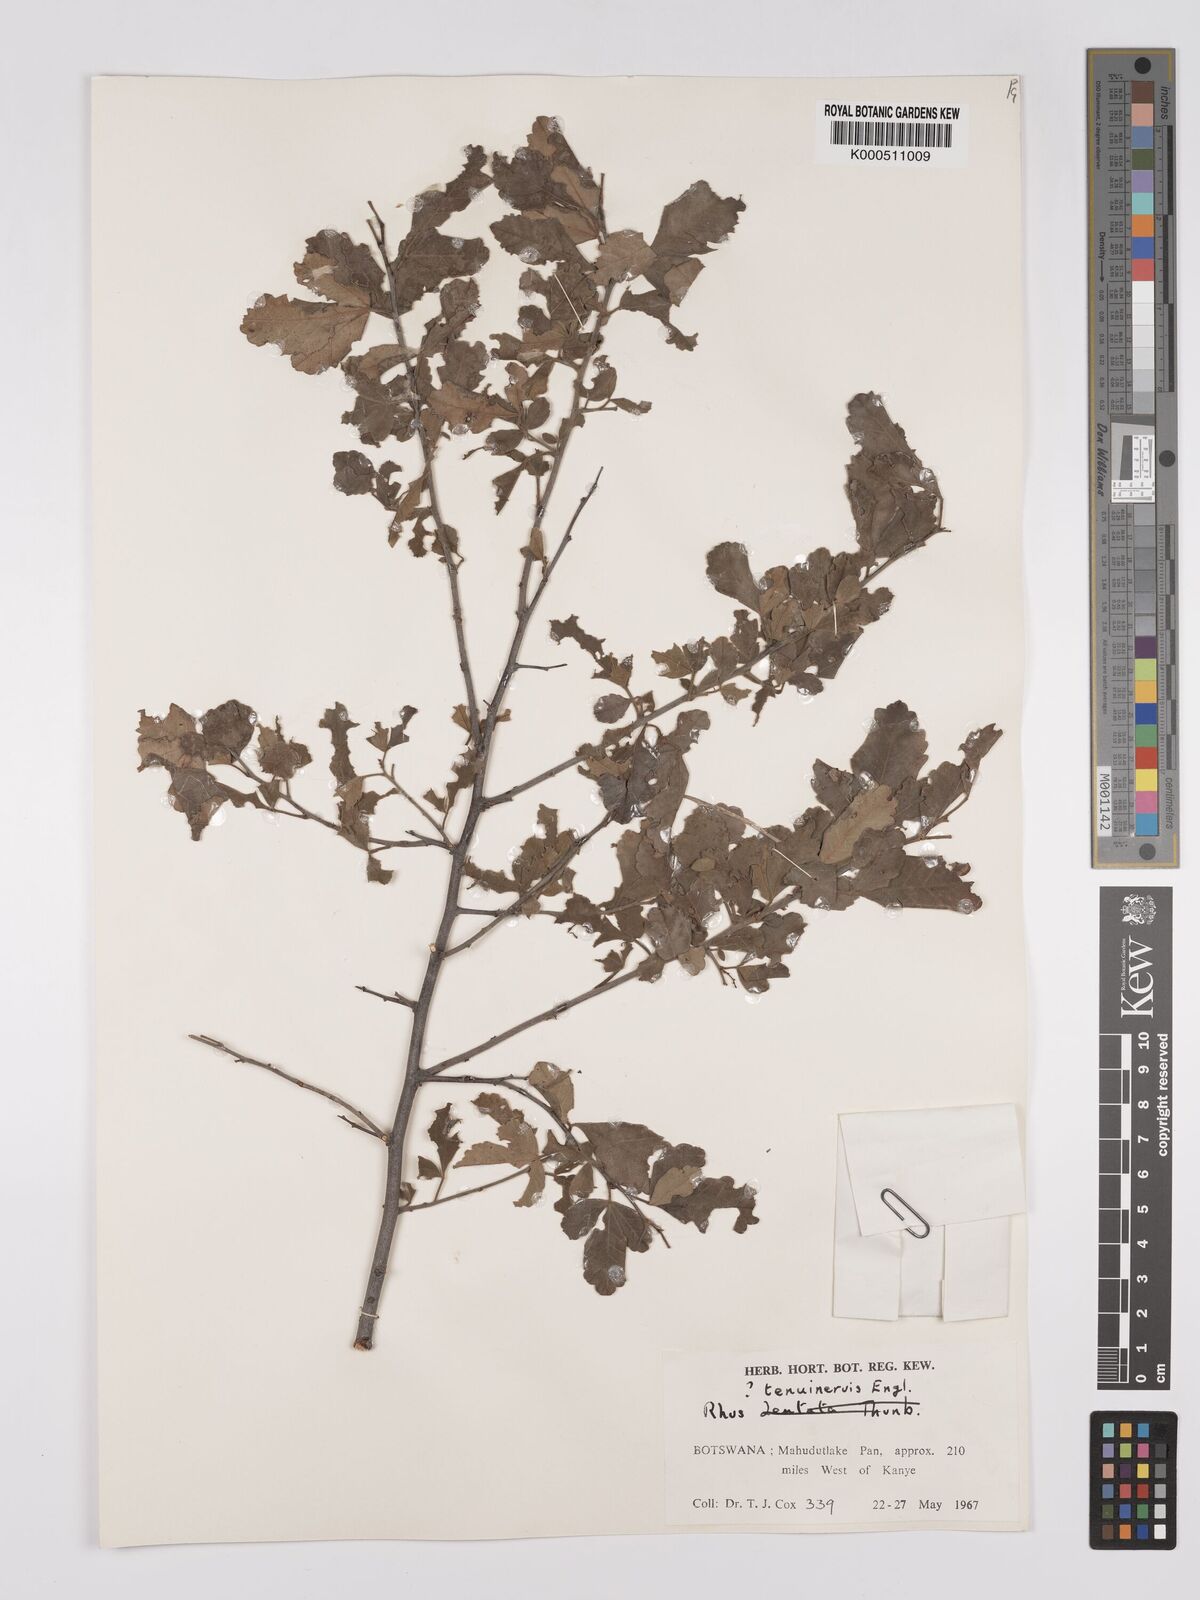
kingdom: Plantae
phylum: Tracheophyta
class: Magnoliopsida
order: Sapindales
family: Anacardiaceae
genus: Searsia
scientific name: Searsia tenuinervis
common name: Hyaena taaibos
